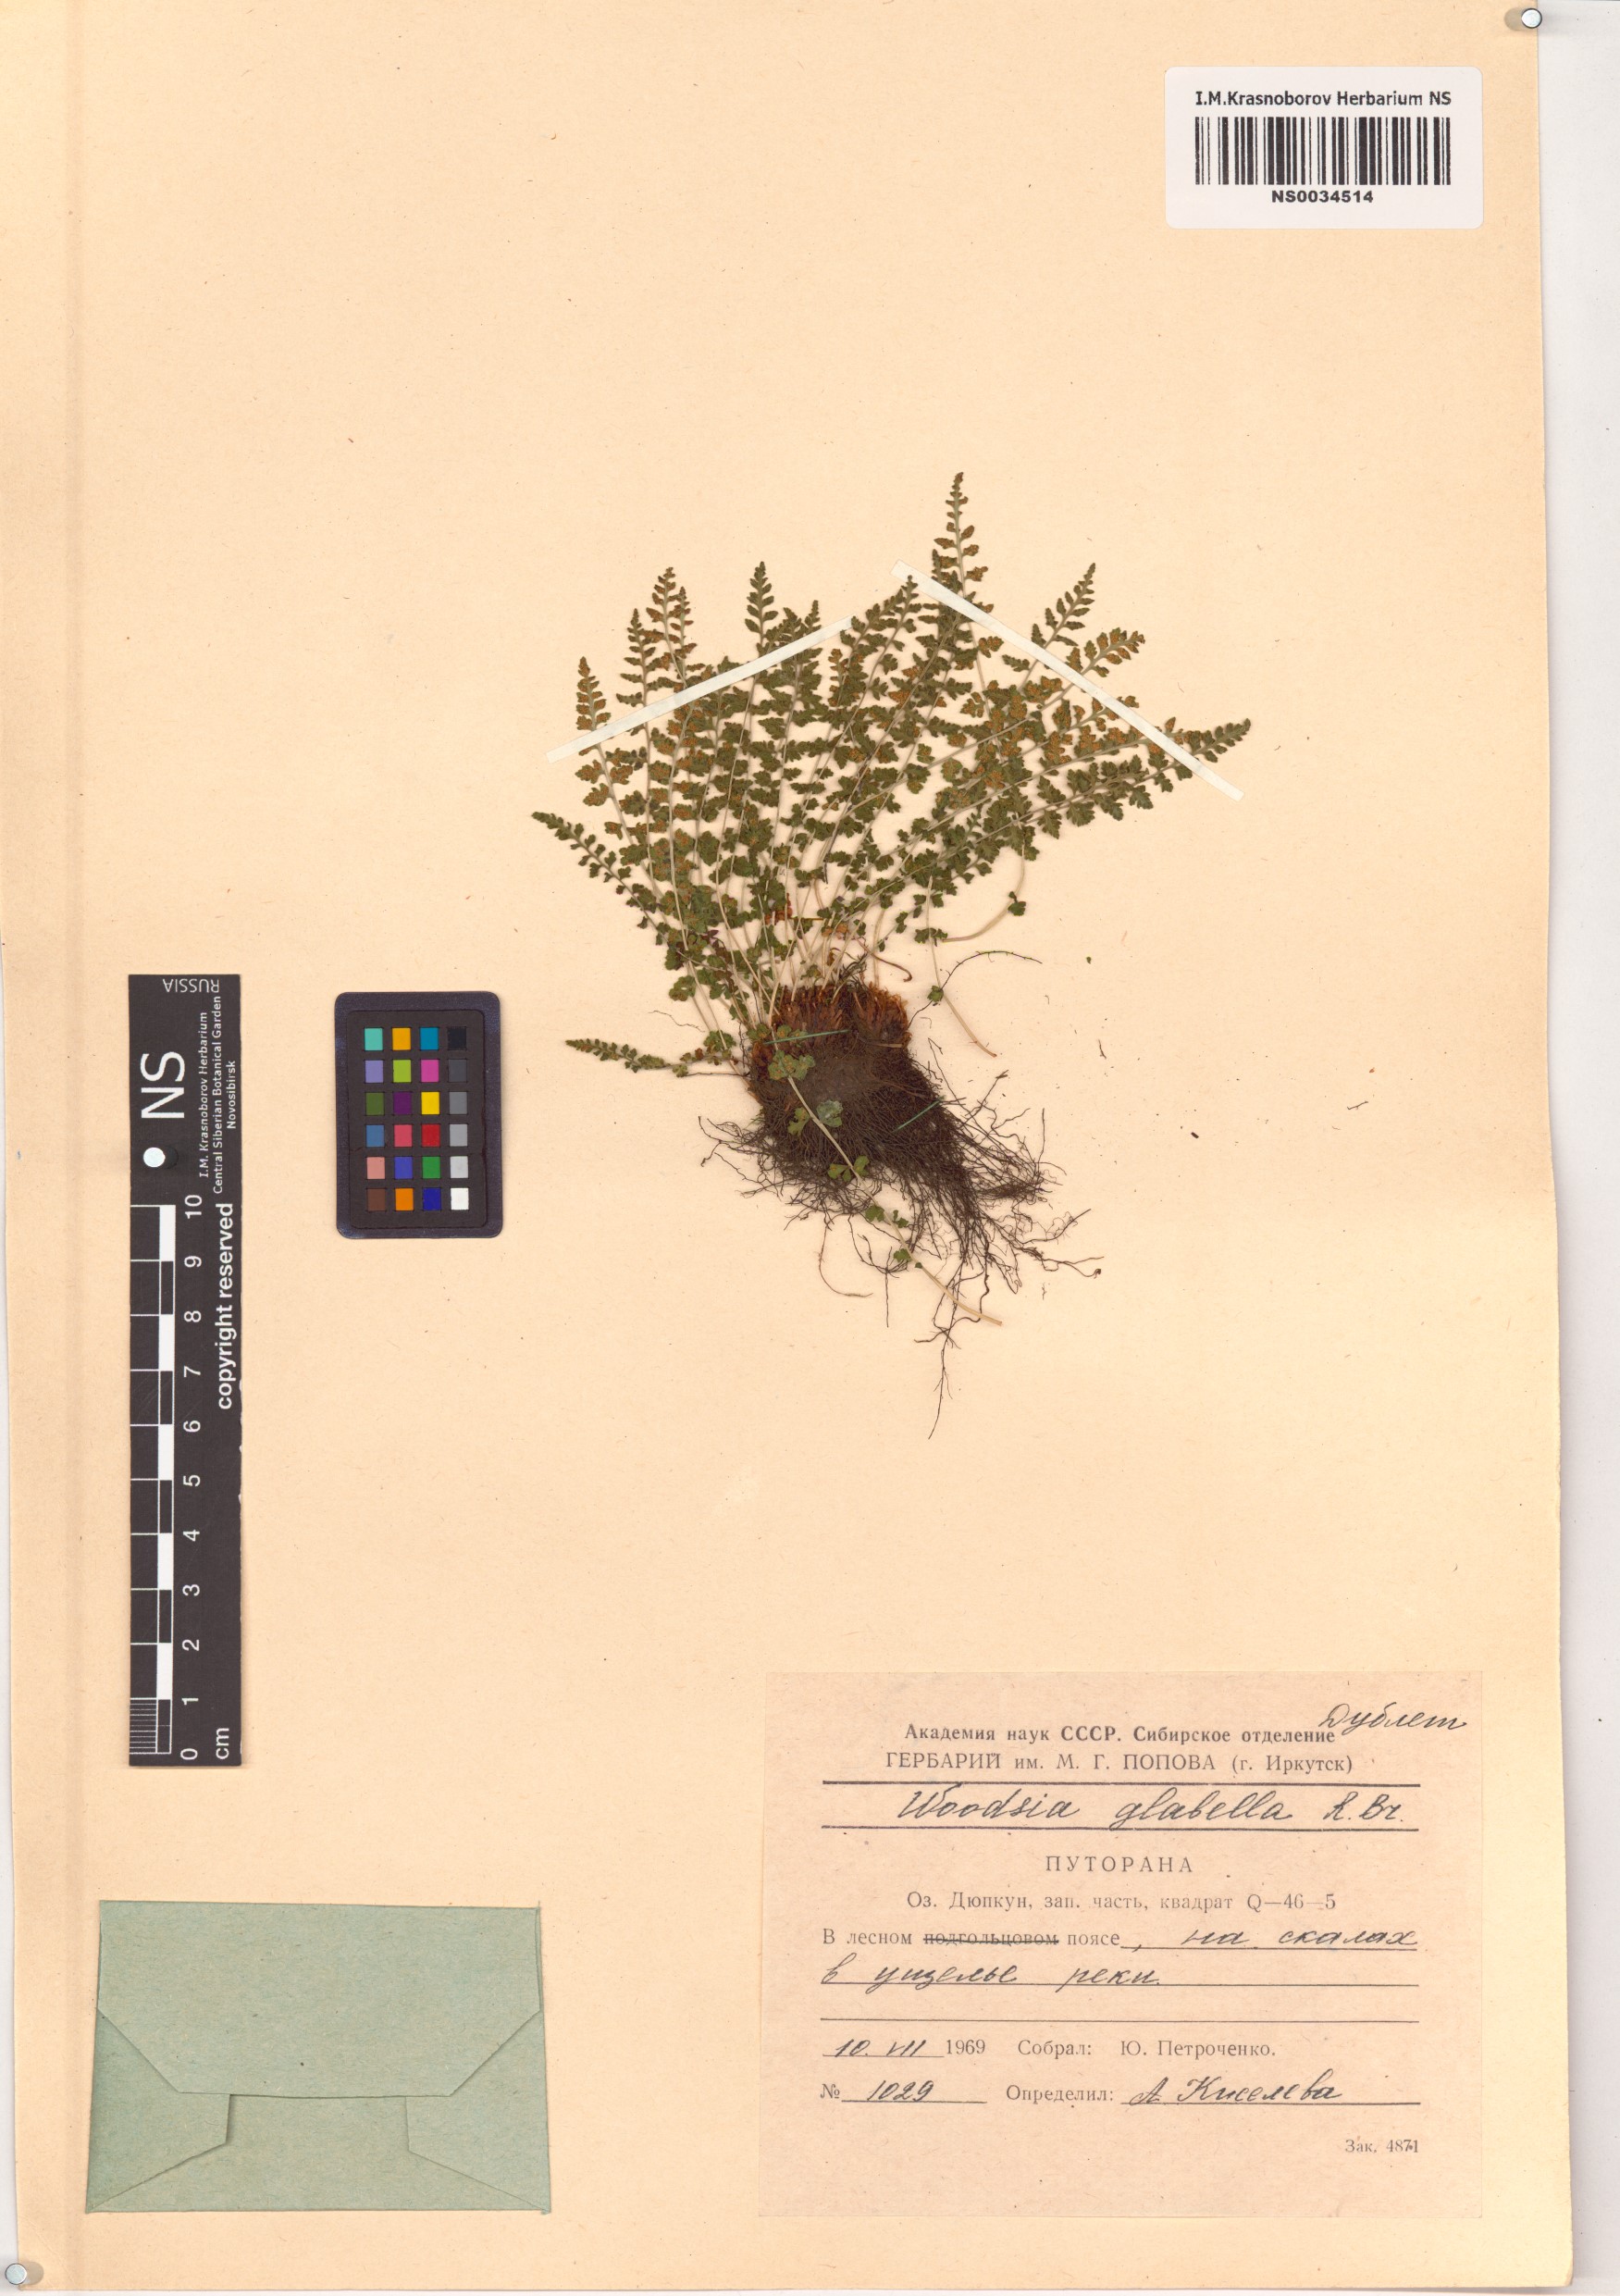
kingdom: Plantae
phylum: Tracheophyta
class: Polypodiopsida
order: Polypodiales
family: Woodsiaceae
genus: Woodsia
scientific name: Woodsia glabella
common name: Smooth woodsia
